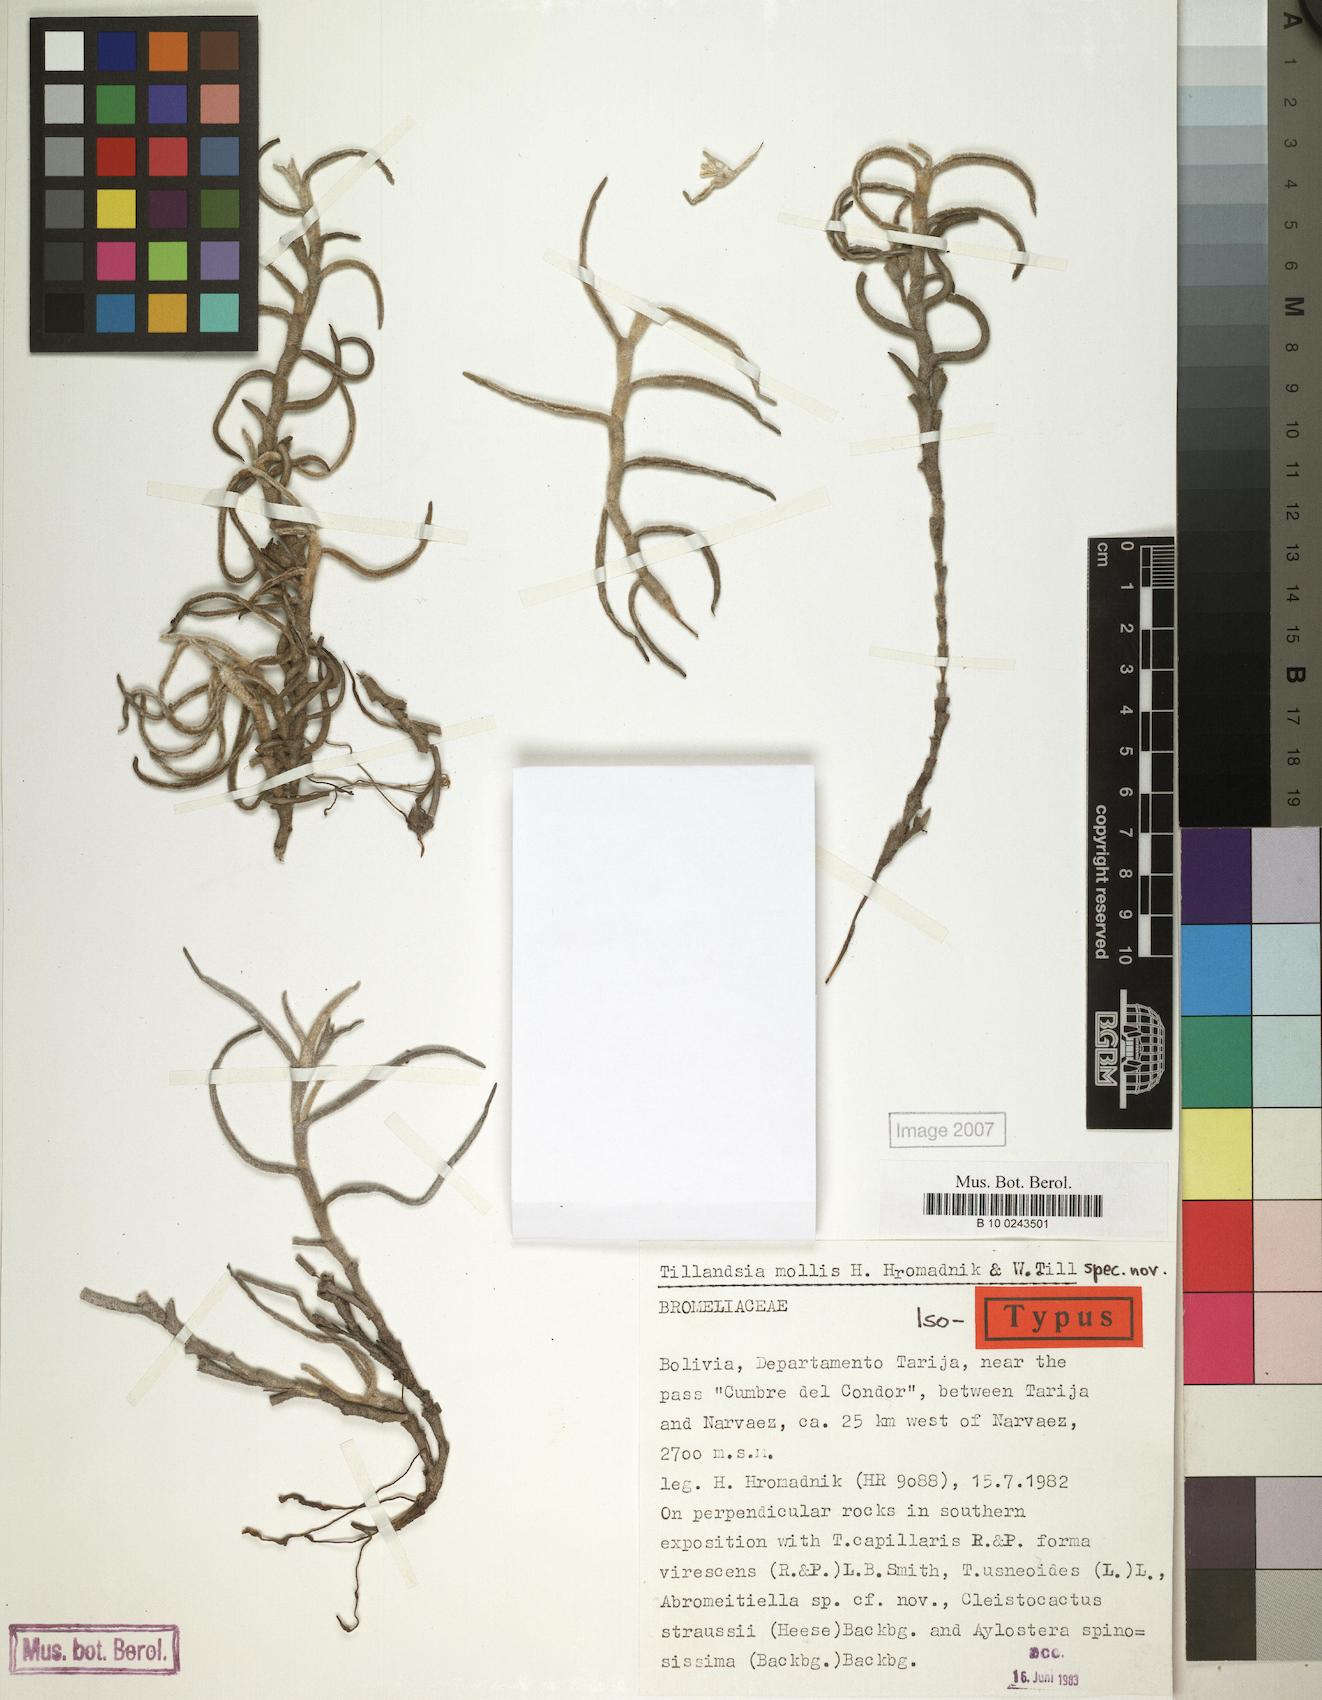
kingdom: Plantae
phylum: Tracheophyta
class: Liliopsida
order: Poales
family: Bromeliaceae
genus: Tillandsia
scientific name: Tillandsia mollis
